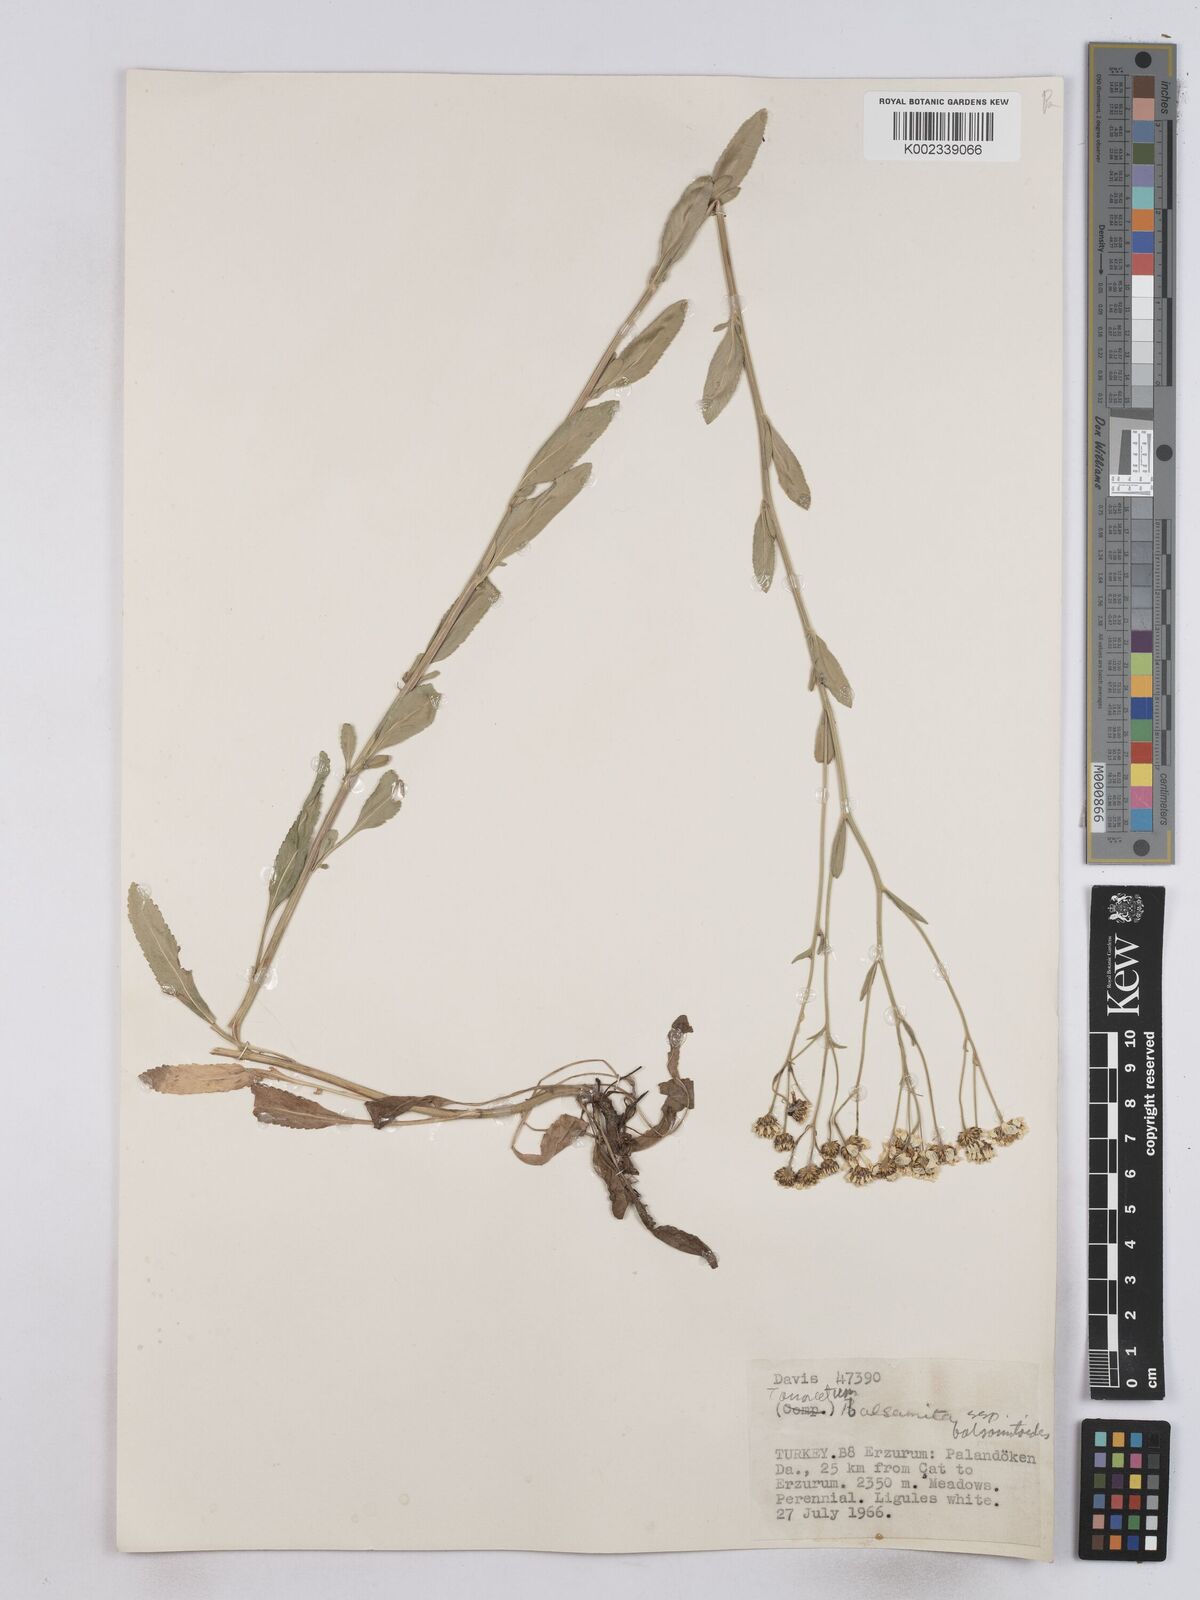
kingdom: Plantae
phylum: Tracheophyta
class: Magnoliopsida
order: Asterales
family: Asteraceae
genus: Tanacetum
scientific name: Tanacetum balsamita
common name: Costmary
